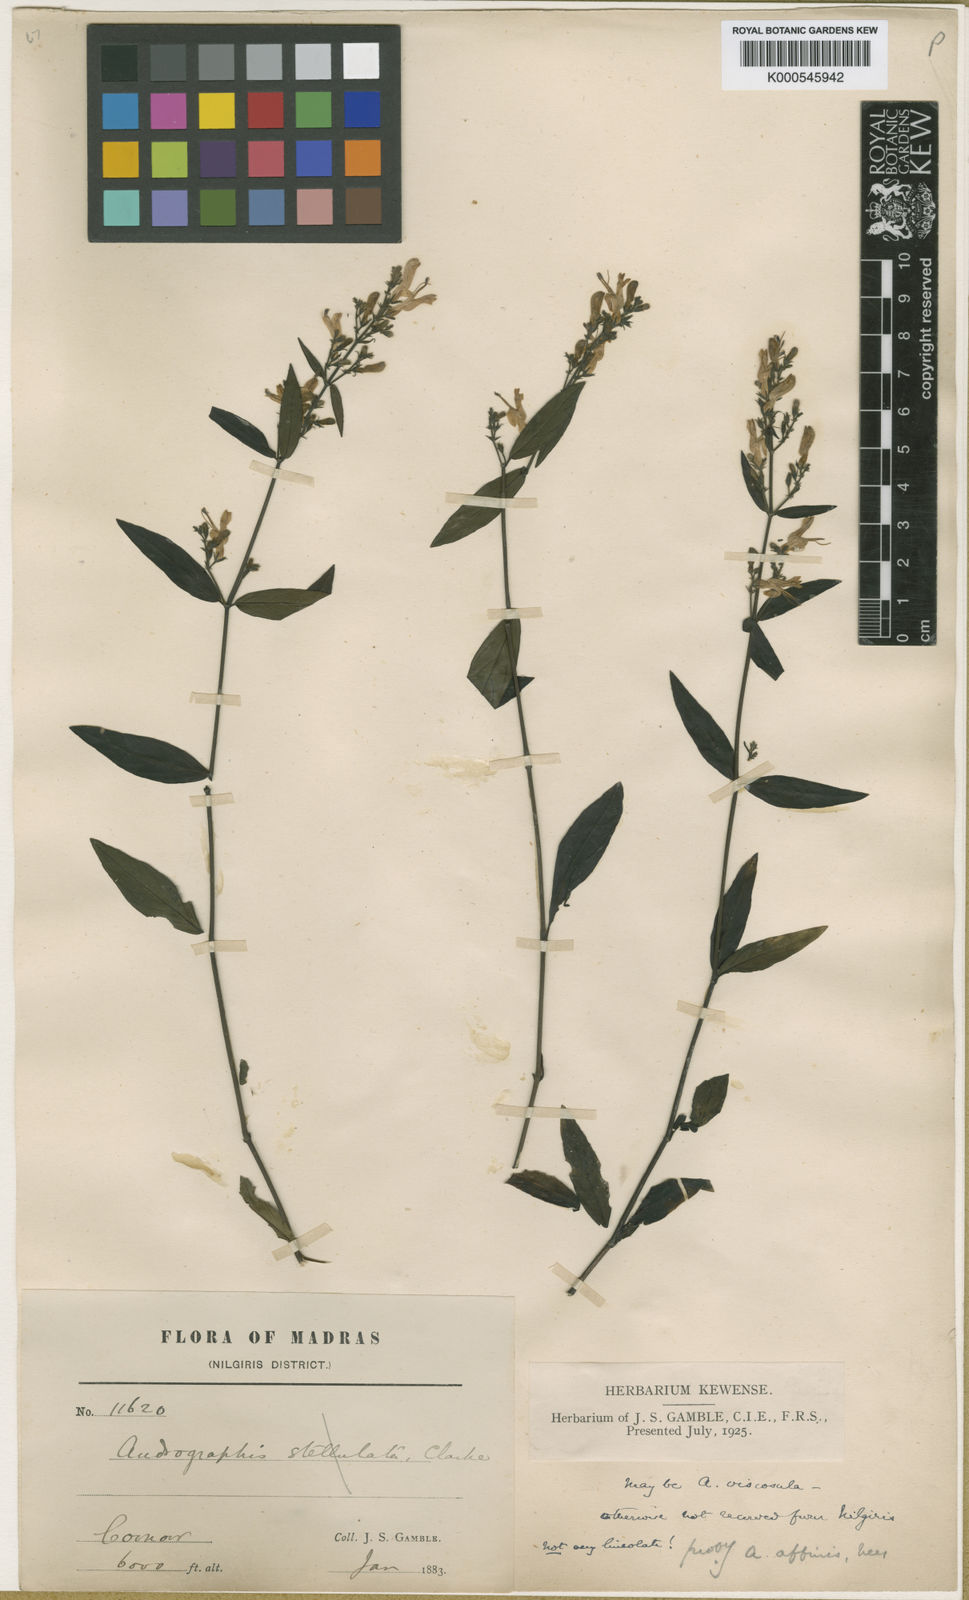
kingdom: Plantae
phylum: Tracheophyta
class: Magnoliopsida
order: Lamiales
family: Acanthaceae
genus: Andrographis
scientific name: Andrographis affinis
